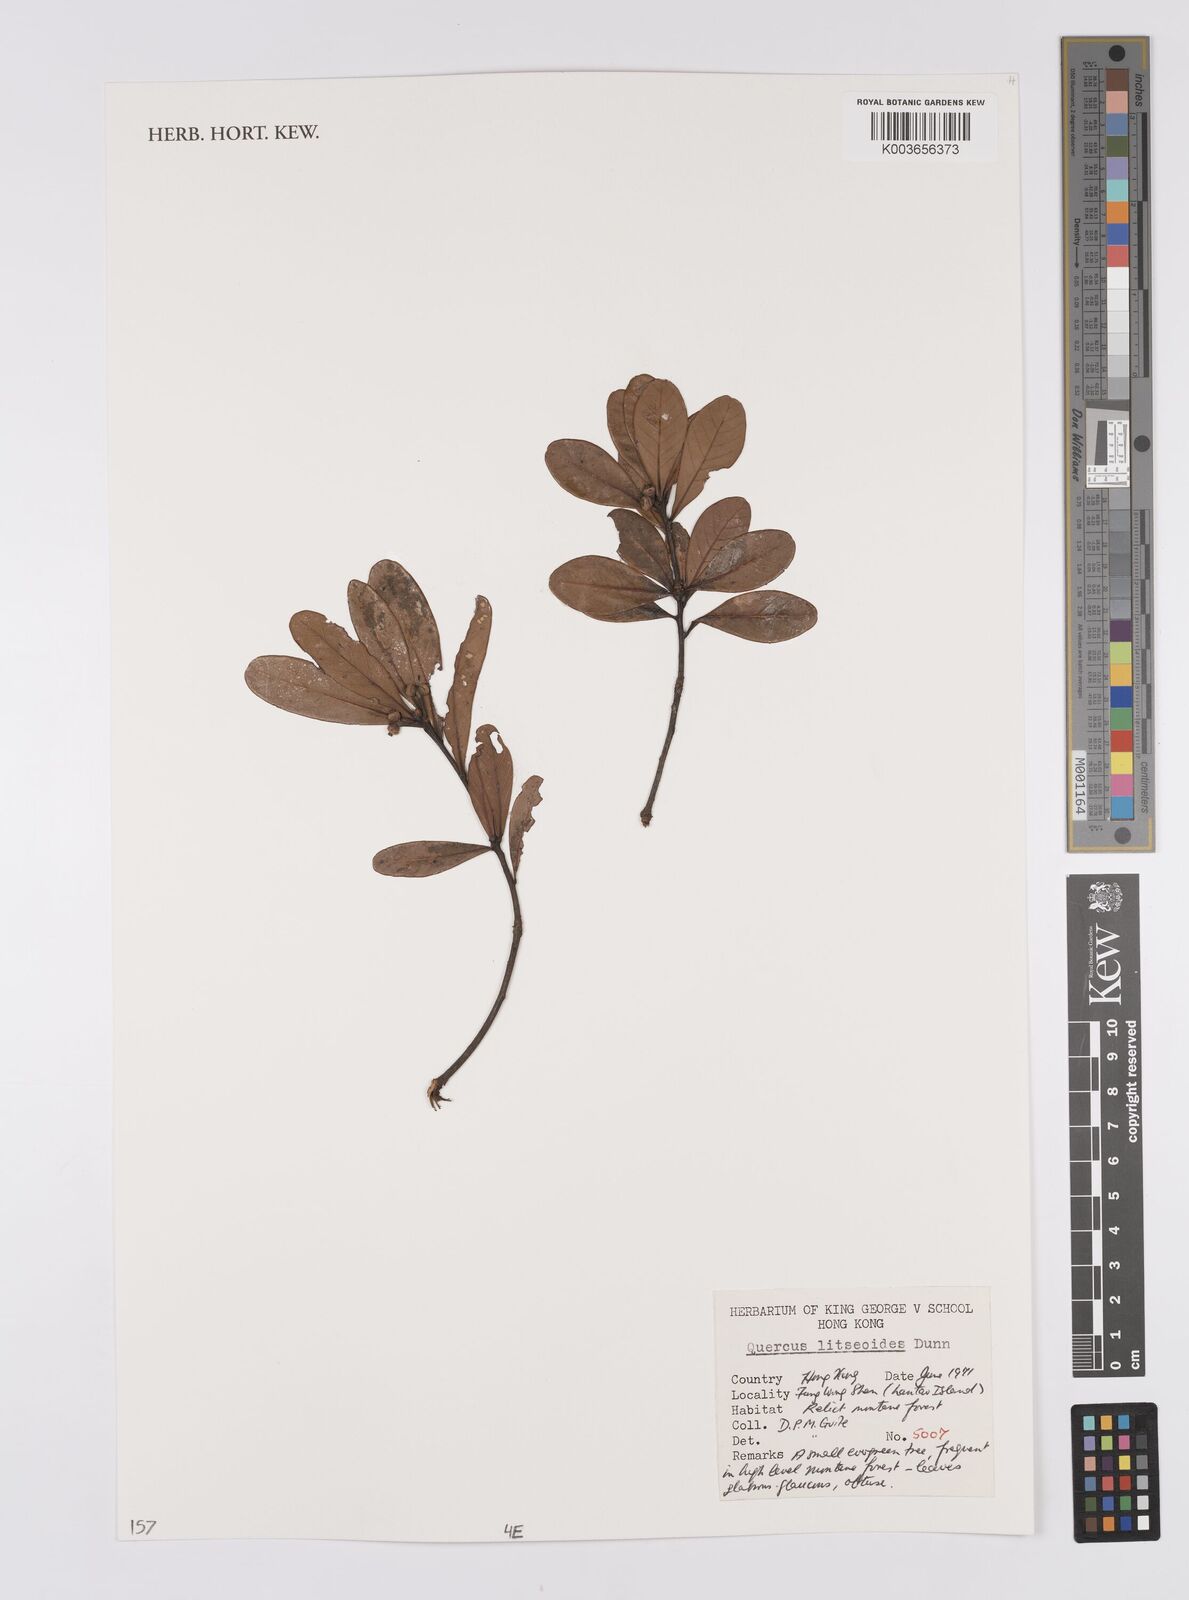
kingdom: Plantae
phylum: Tracheophyta
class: Magnoliopsida
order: Fagales
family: Fagaceae
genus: Quercus
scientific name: Quercus litseoides
